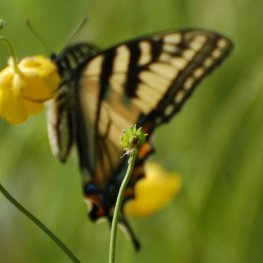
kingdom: Animalia
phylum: Arthropoda
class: Insecta
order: Lepidoptera
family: Papilionidae
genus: Pterourus
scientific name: Pterourus canadensis
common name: Canadian Tiger Swallowtail
